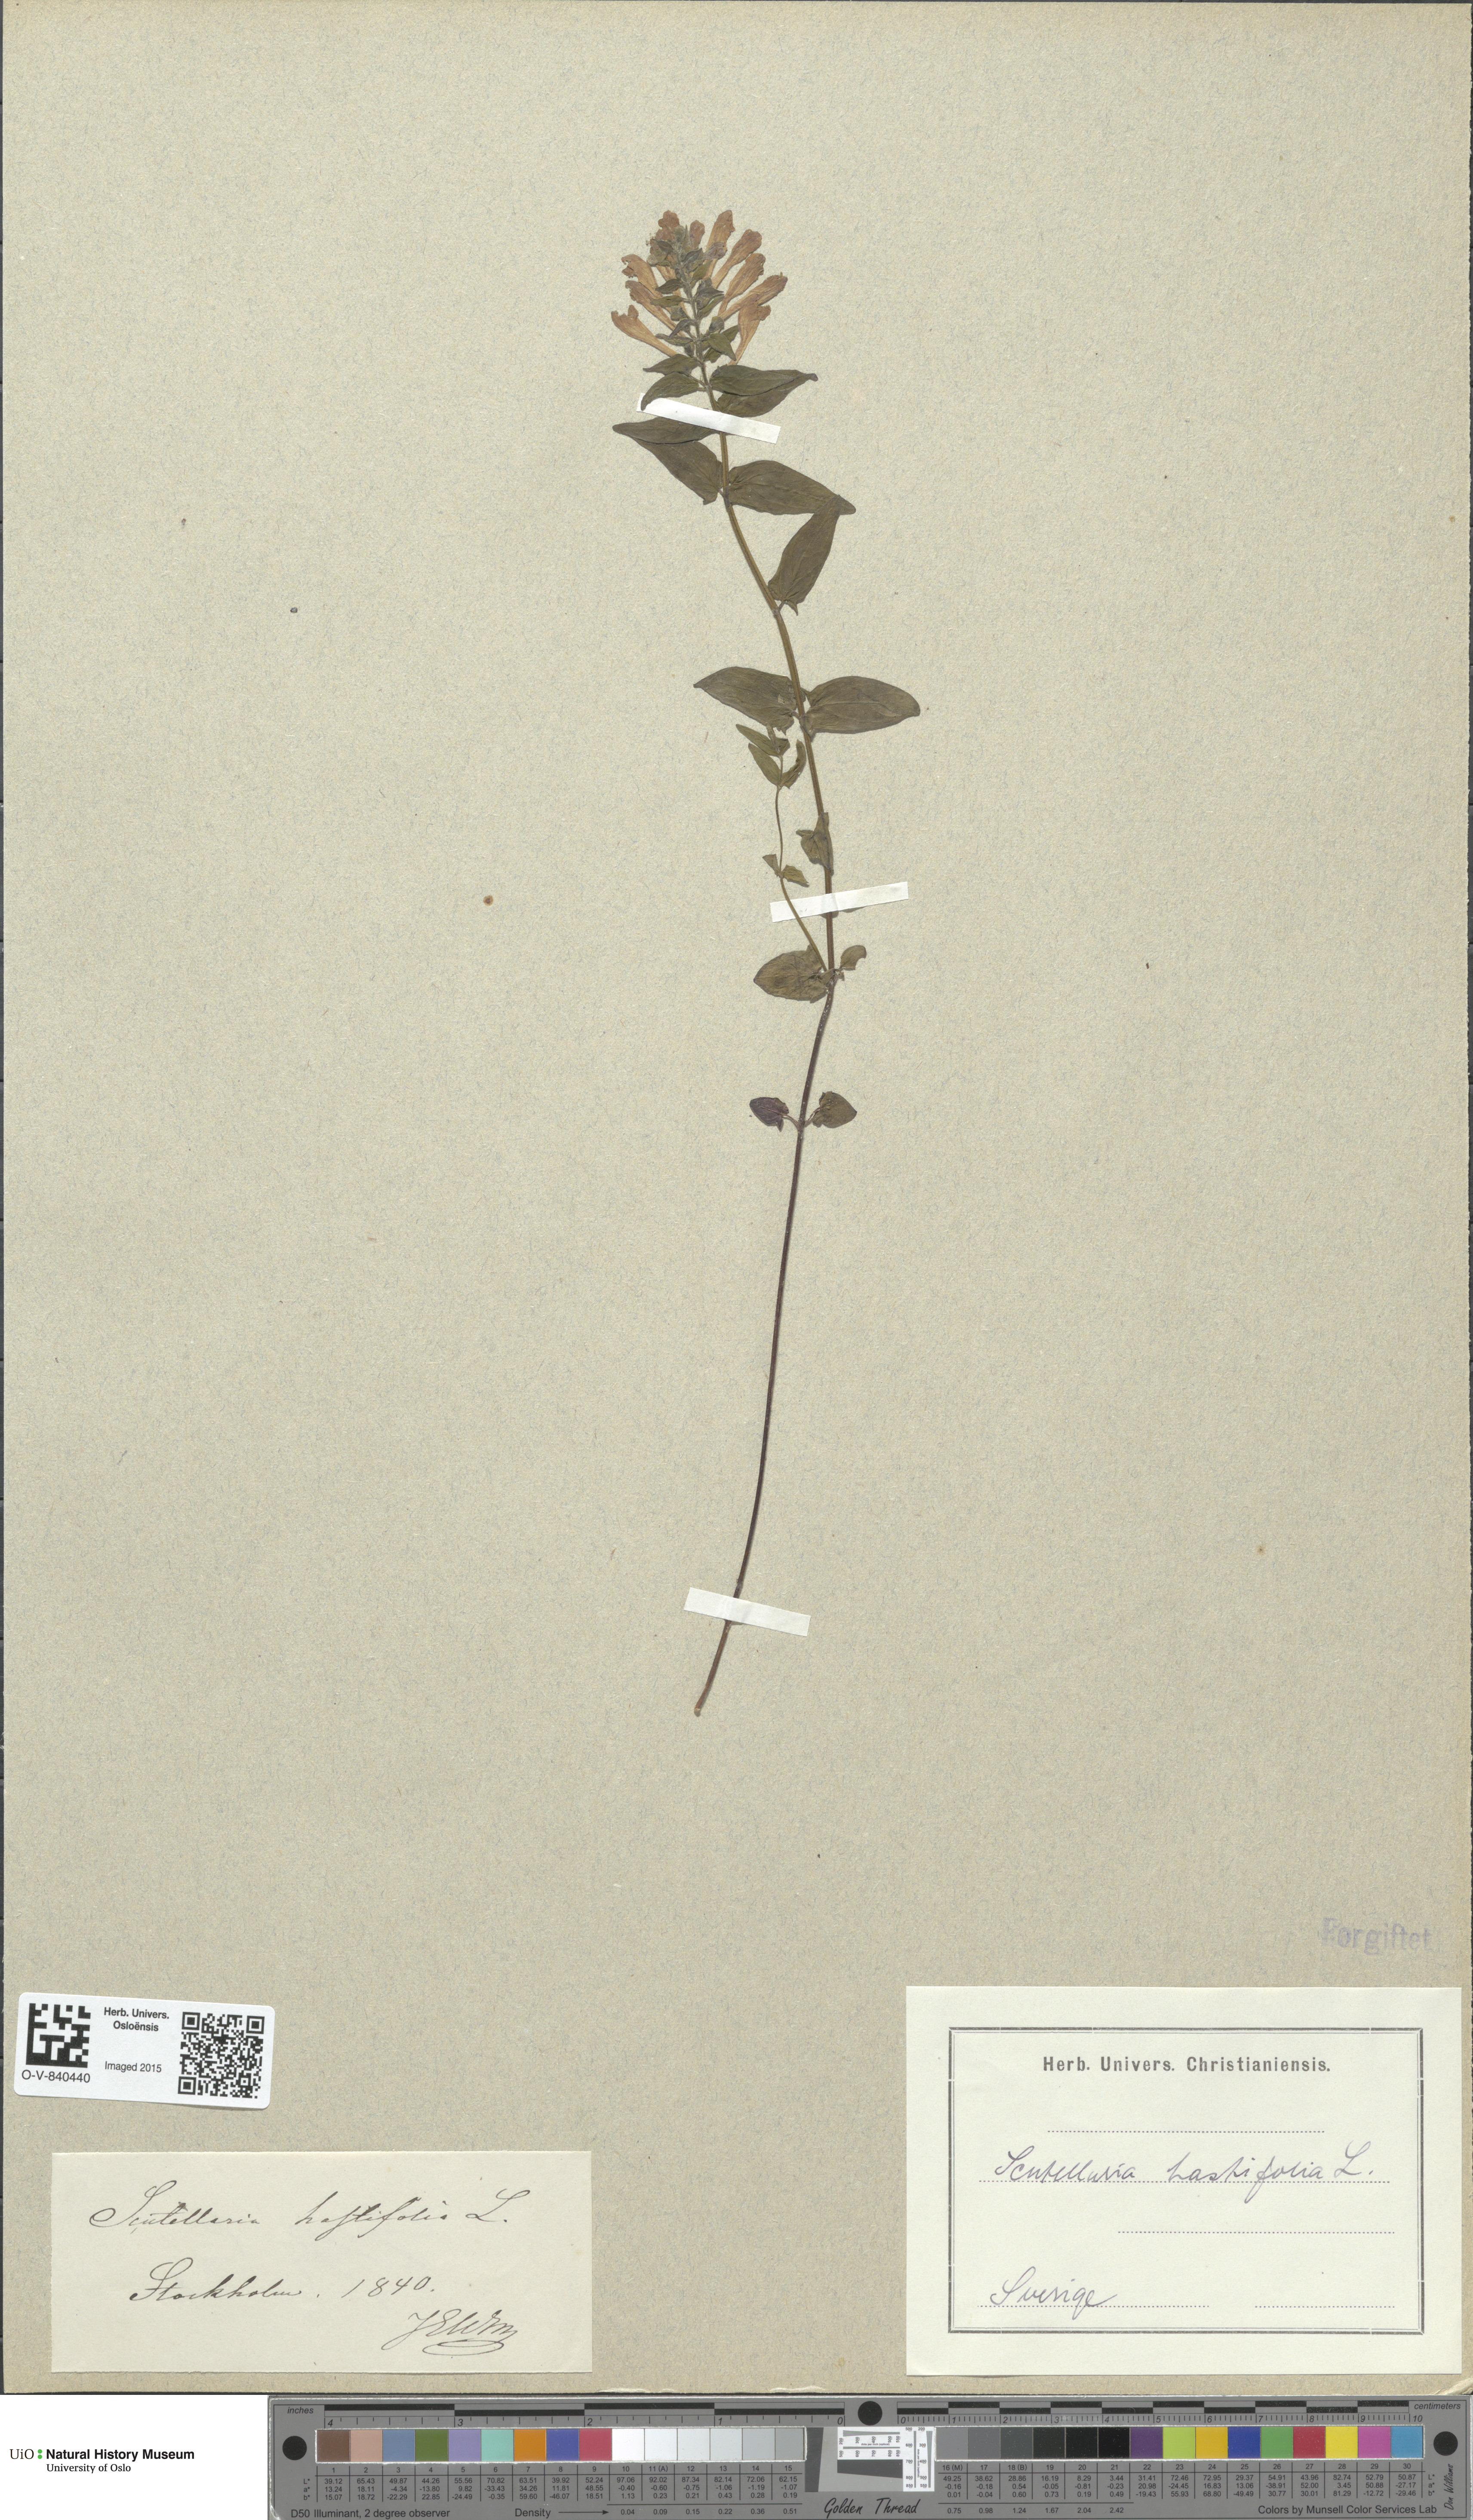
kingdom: Plantae
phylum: Tracheophyta
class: Magnoliopsida
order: Lamiales
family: Lamiaceae
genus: Scutellaria
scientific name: Scutellaria hastifolia
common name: Norfolk skullcap
